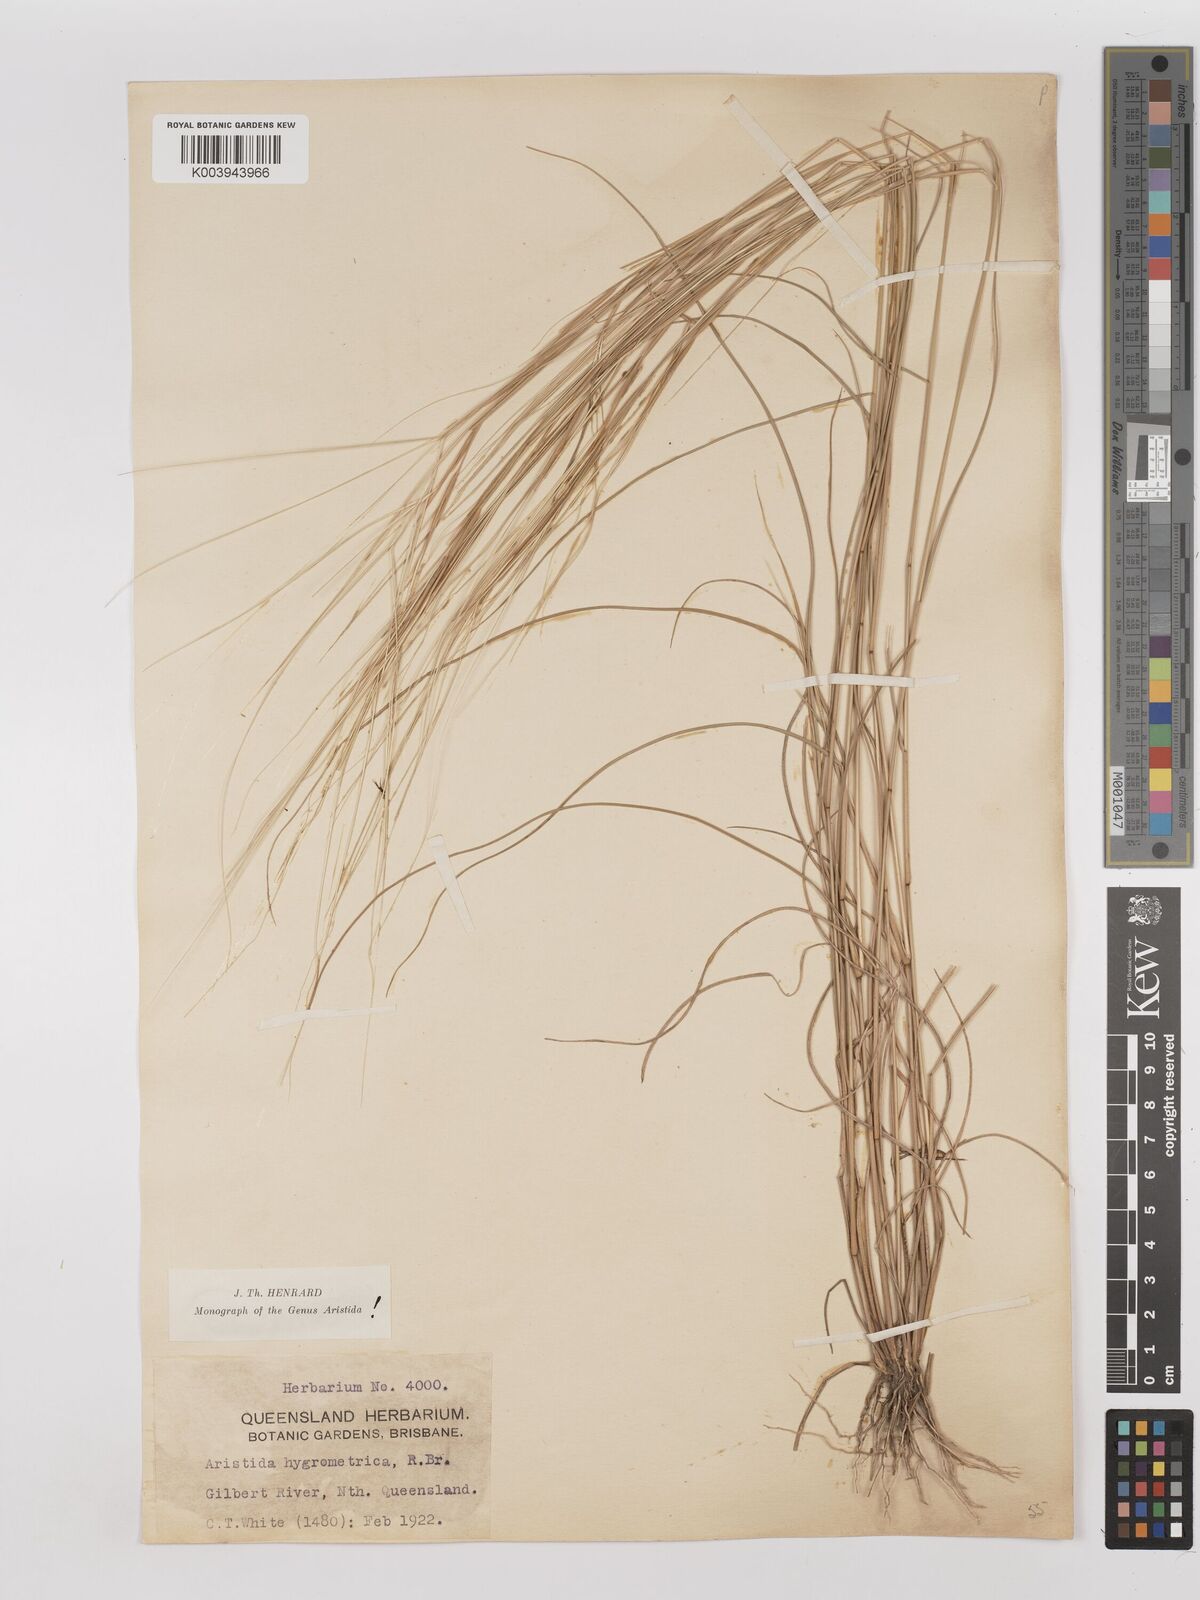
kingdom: Plantae
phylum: Tracheophyta
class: Liliopsida
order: Poales
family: Poaceae
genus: Aristida
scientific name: Aristida hygrometrica
